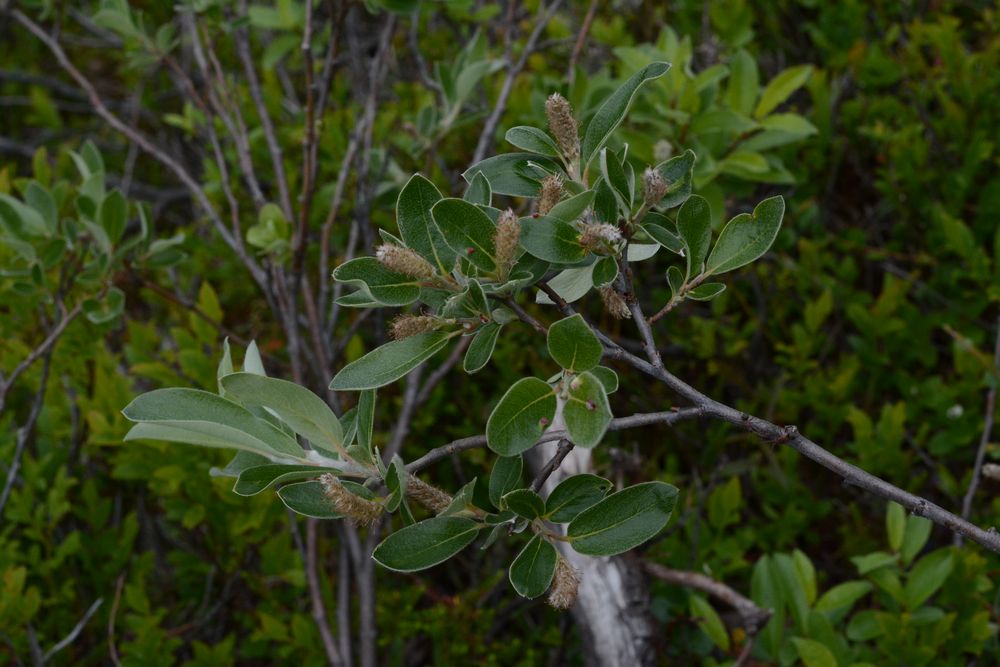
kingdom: Plantae
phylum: Tracheophyta
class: Magnoliopsida
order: Malpighiales
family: Salicaceae
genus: Salix
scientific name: Salix
